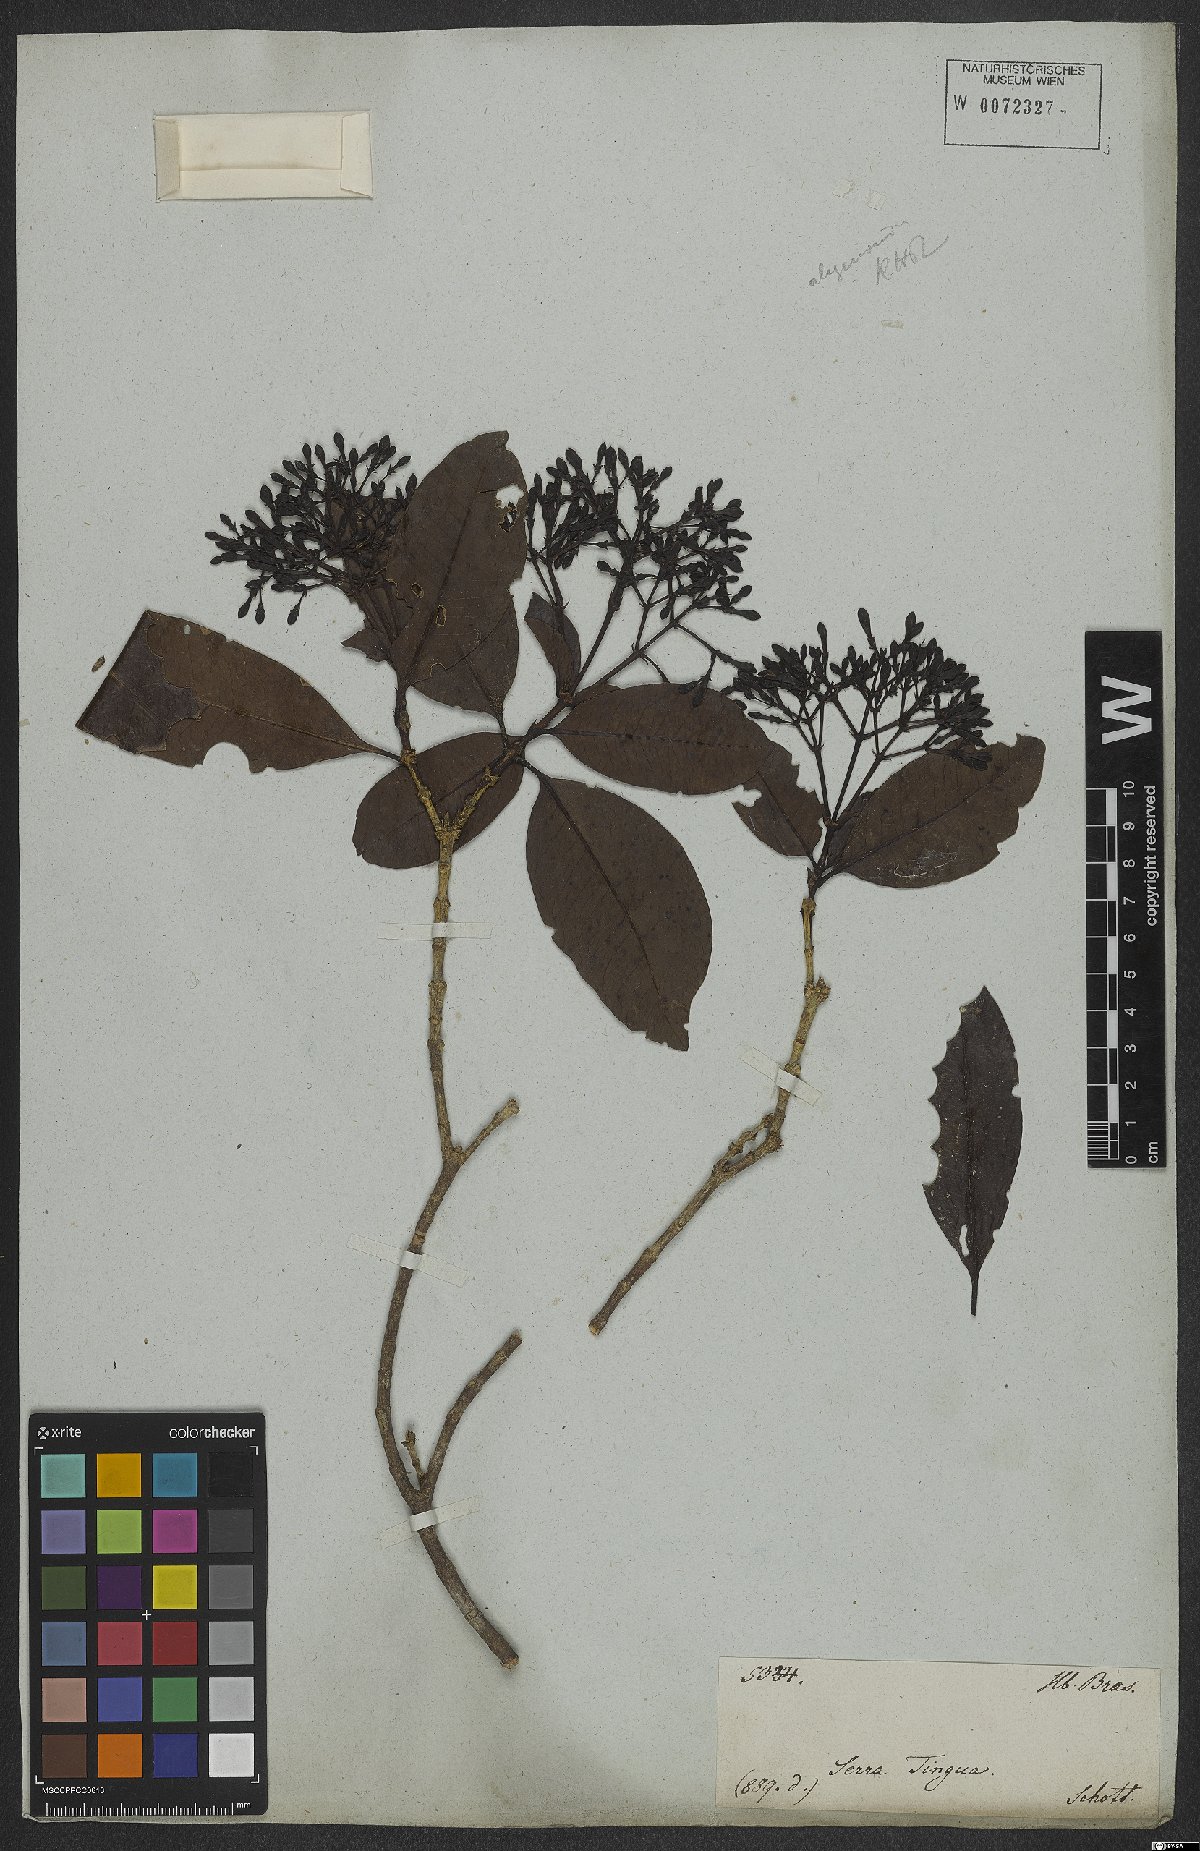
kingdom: Plantae
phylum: Tracheophyta
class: Magnoliopsida
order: Gentianales
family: Rubiaceae
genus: Ixora
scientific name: Ixora gardneriana
